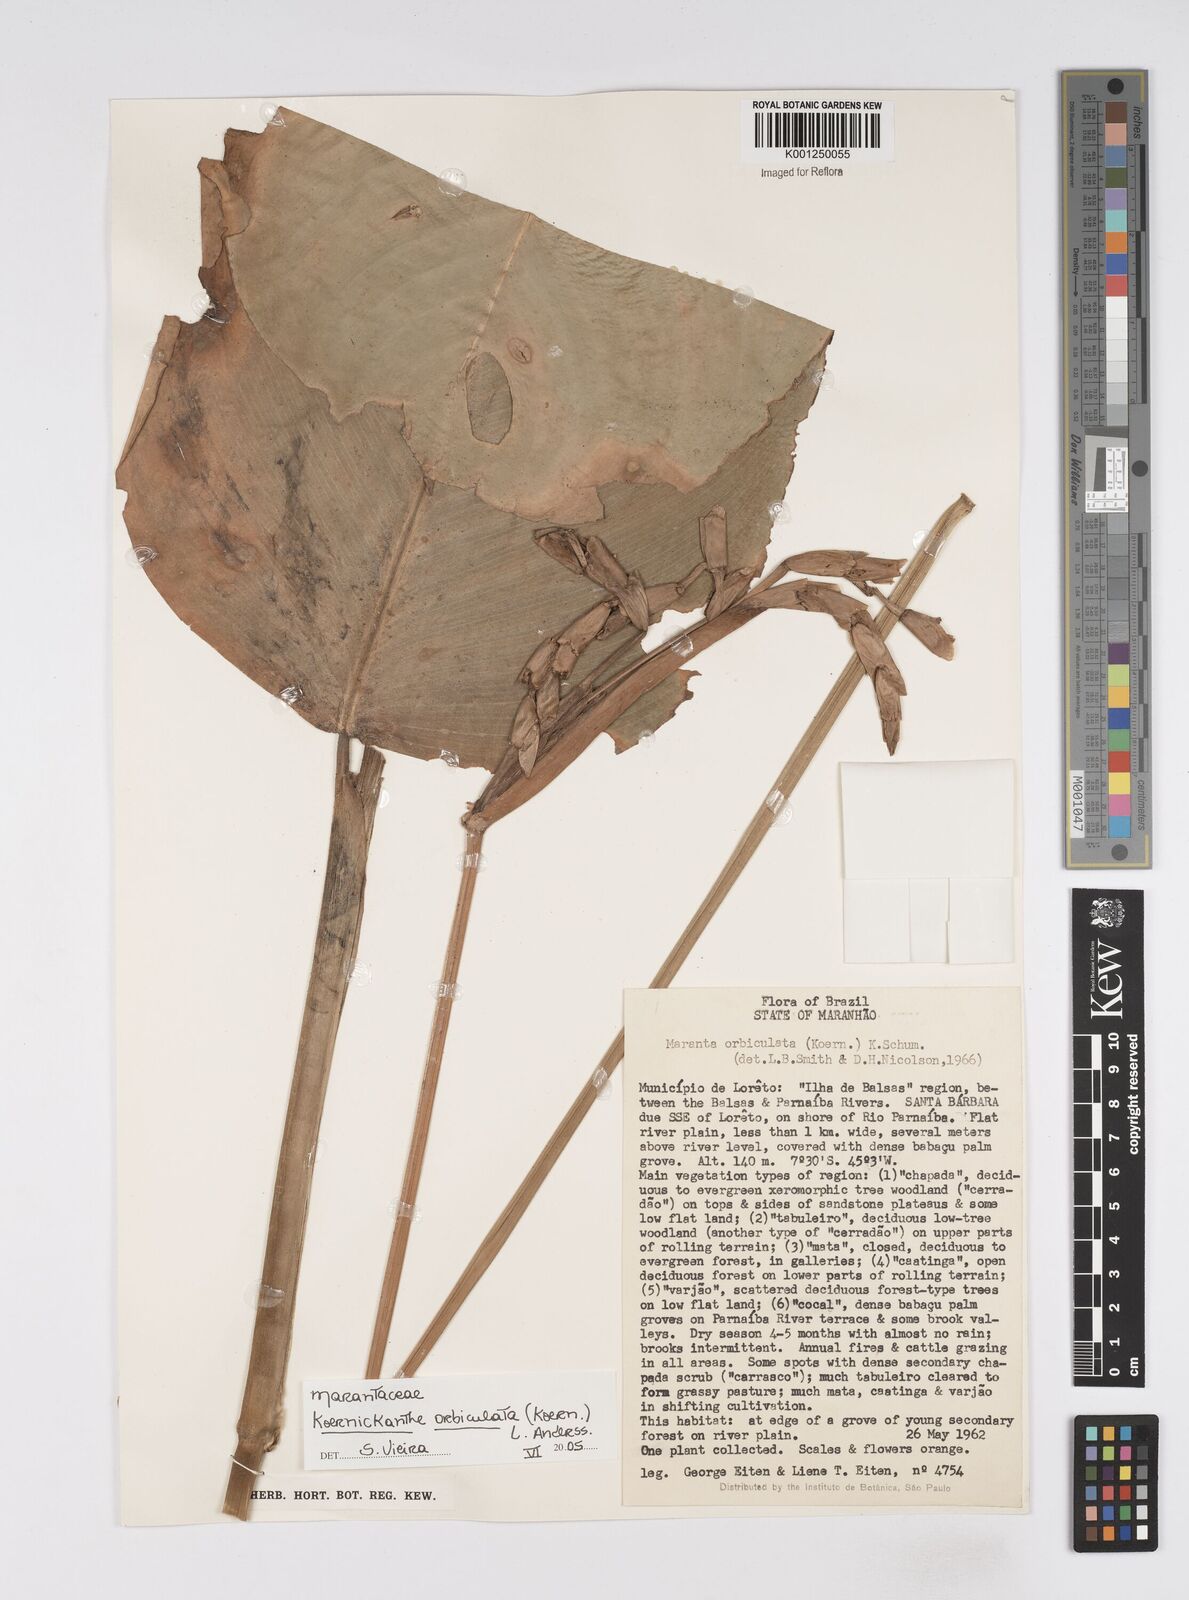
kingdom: Plantae
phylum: Tracheophyta
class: Liliopsida
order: Zingiberales
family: Marantaceae
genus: Koernickanthe
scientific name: Koernickanthe orbiculata
